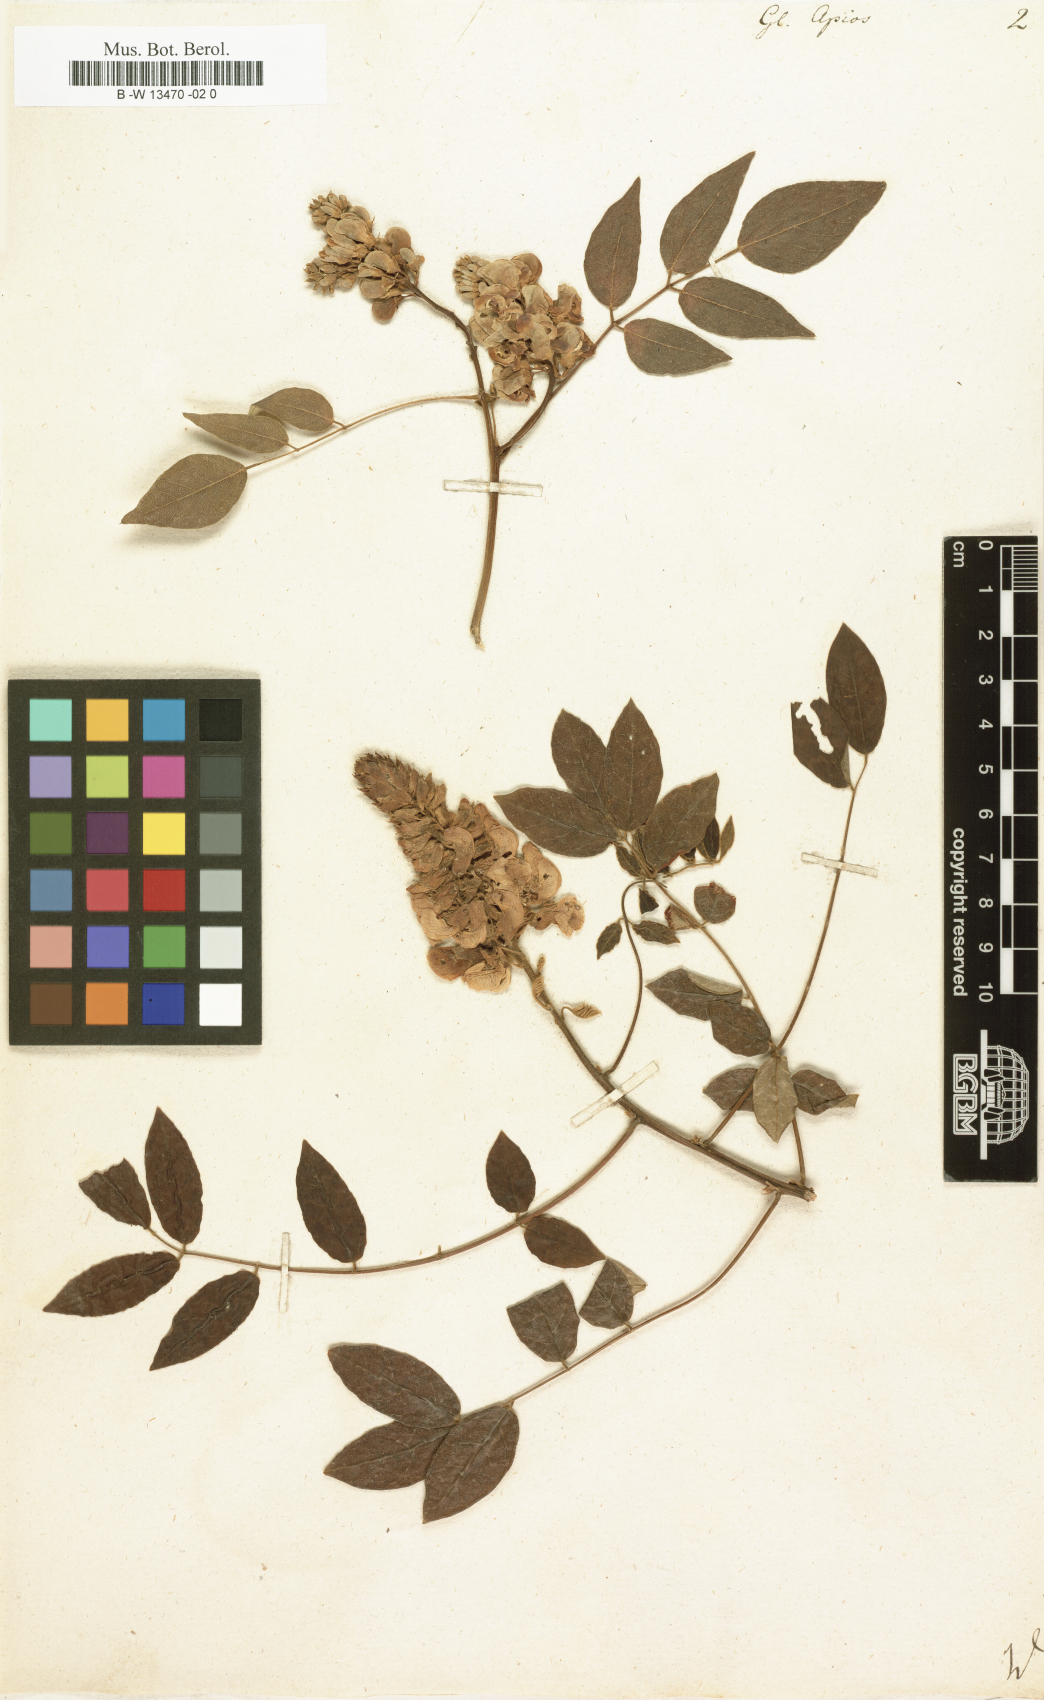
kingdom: Plantae
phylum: Tracheophyta
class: Magnoliopsida
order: Fabales
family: Fabaceae
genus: Apios
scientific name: Apios americana
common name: American potato-bean
